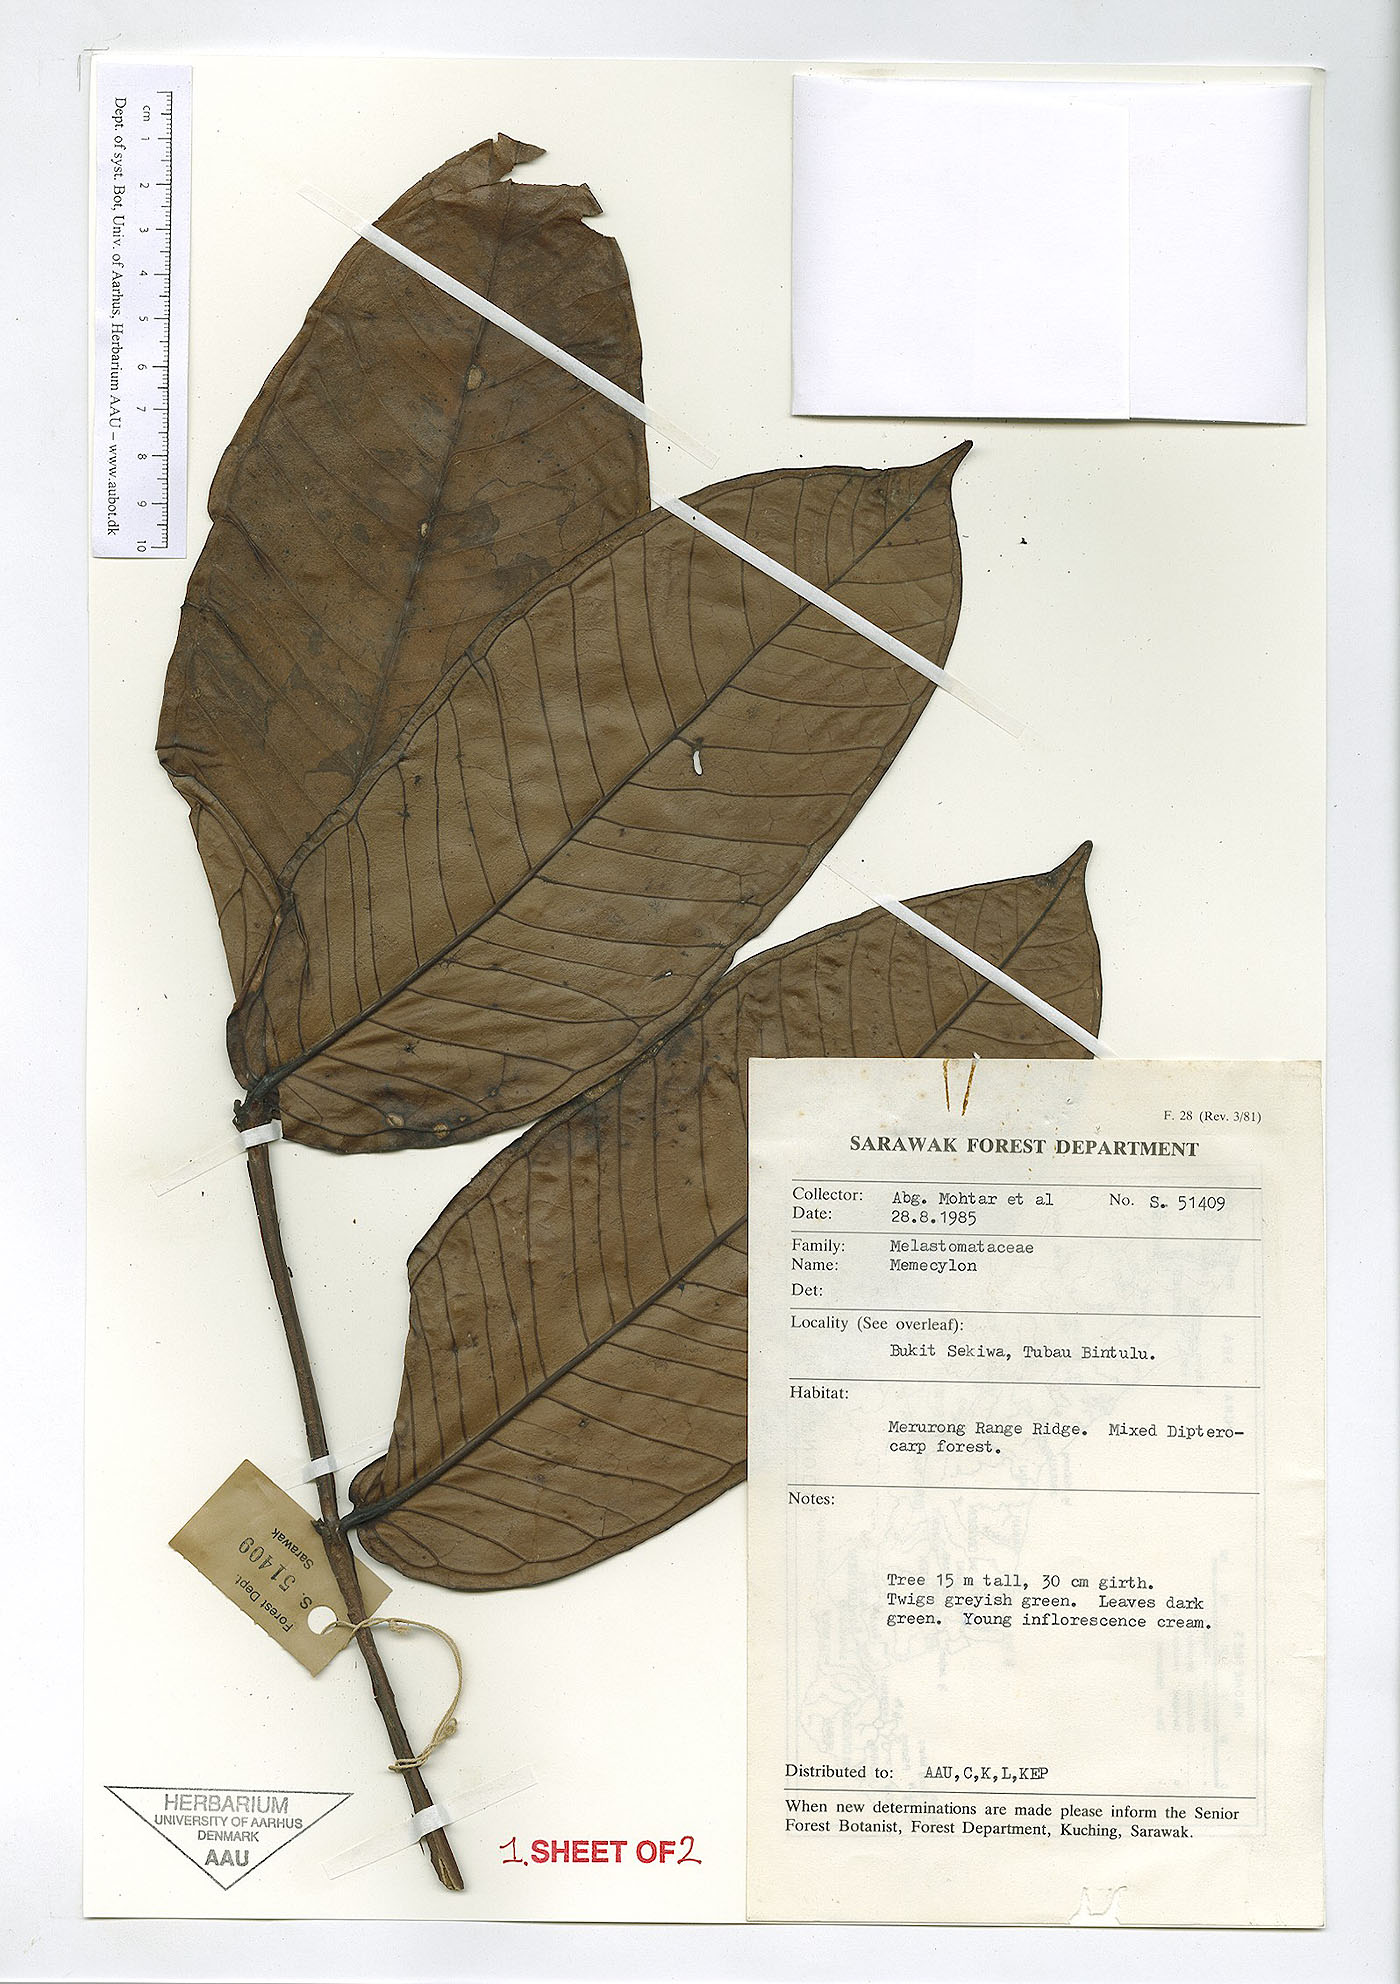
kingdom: Plantae
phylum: Tracheophyta
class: Magnoliopsida
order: Myrtales
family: Melastomataceae
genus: Memecylon
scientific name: Memecylon
